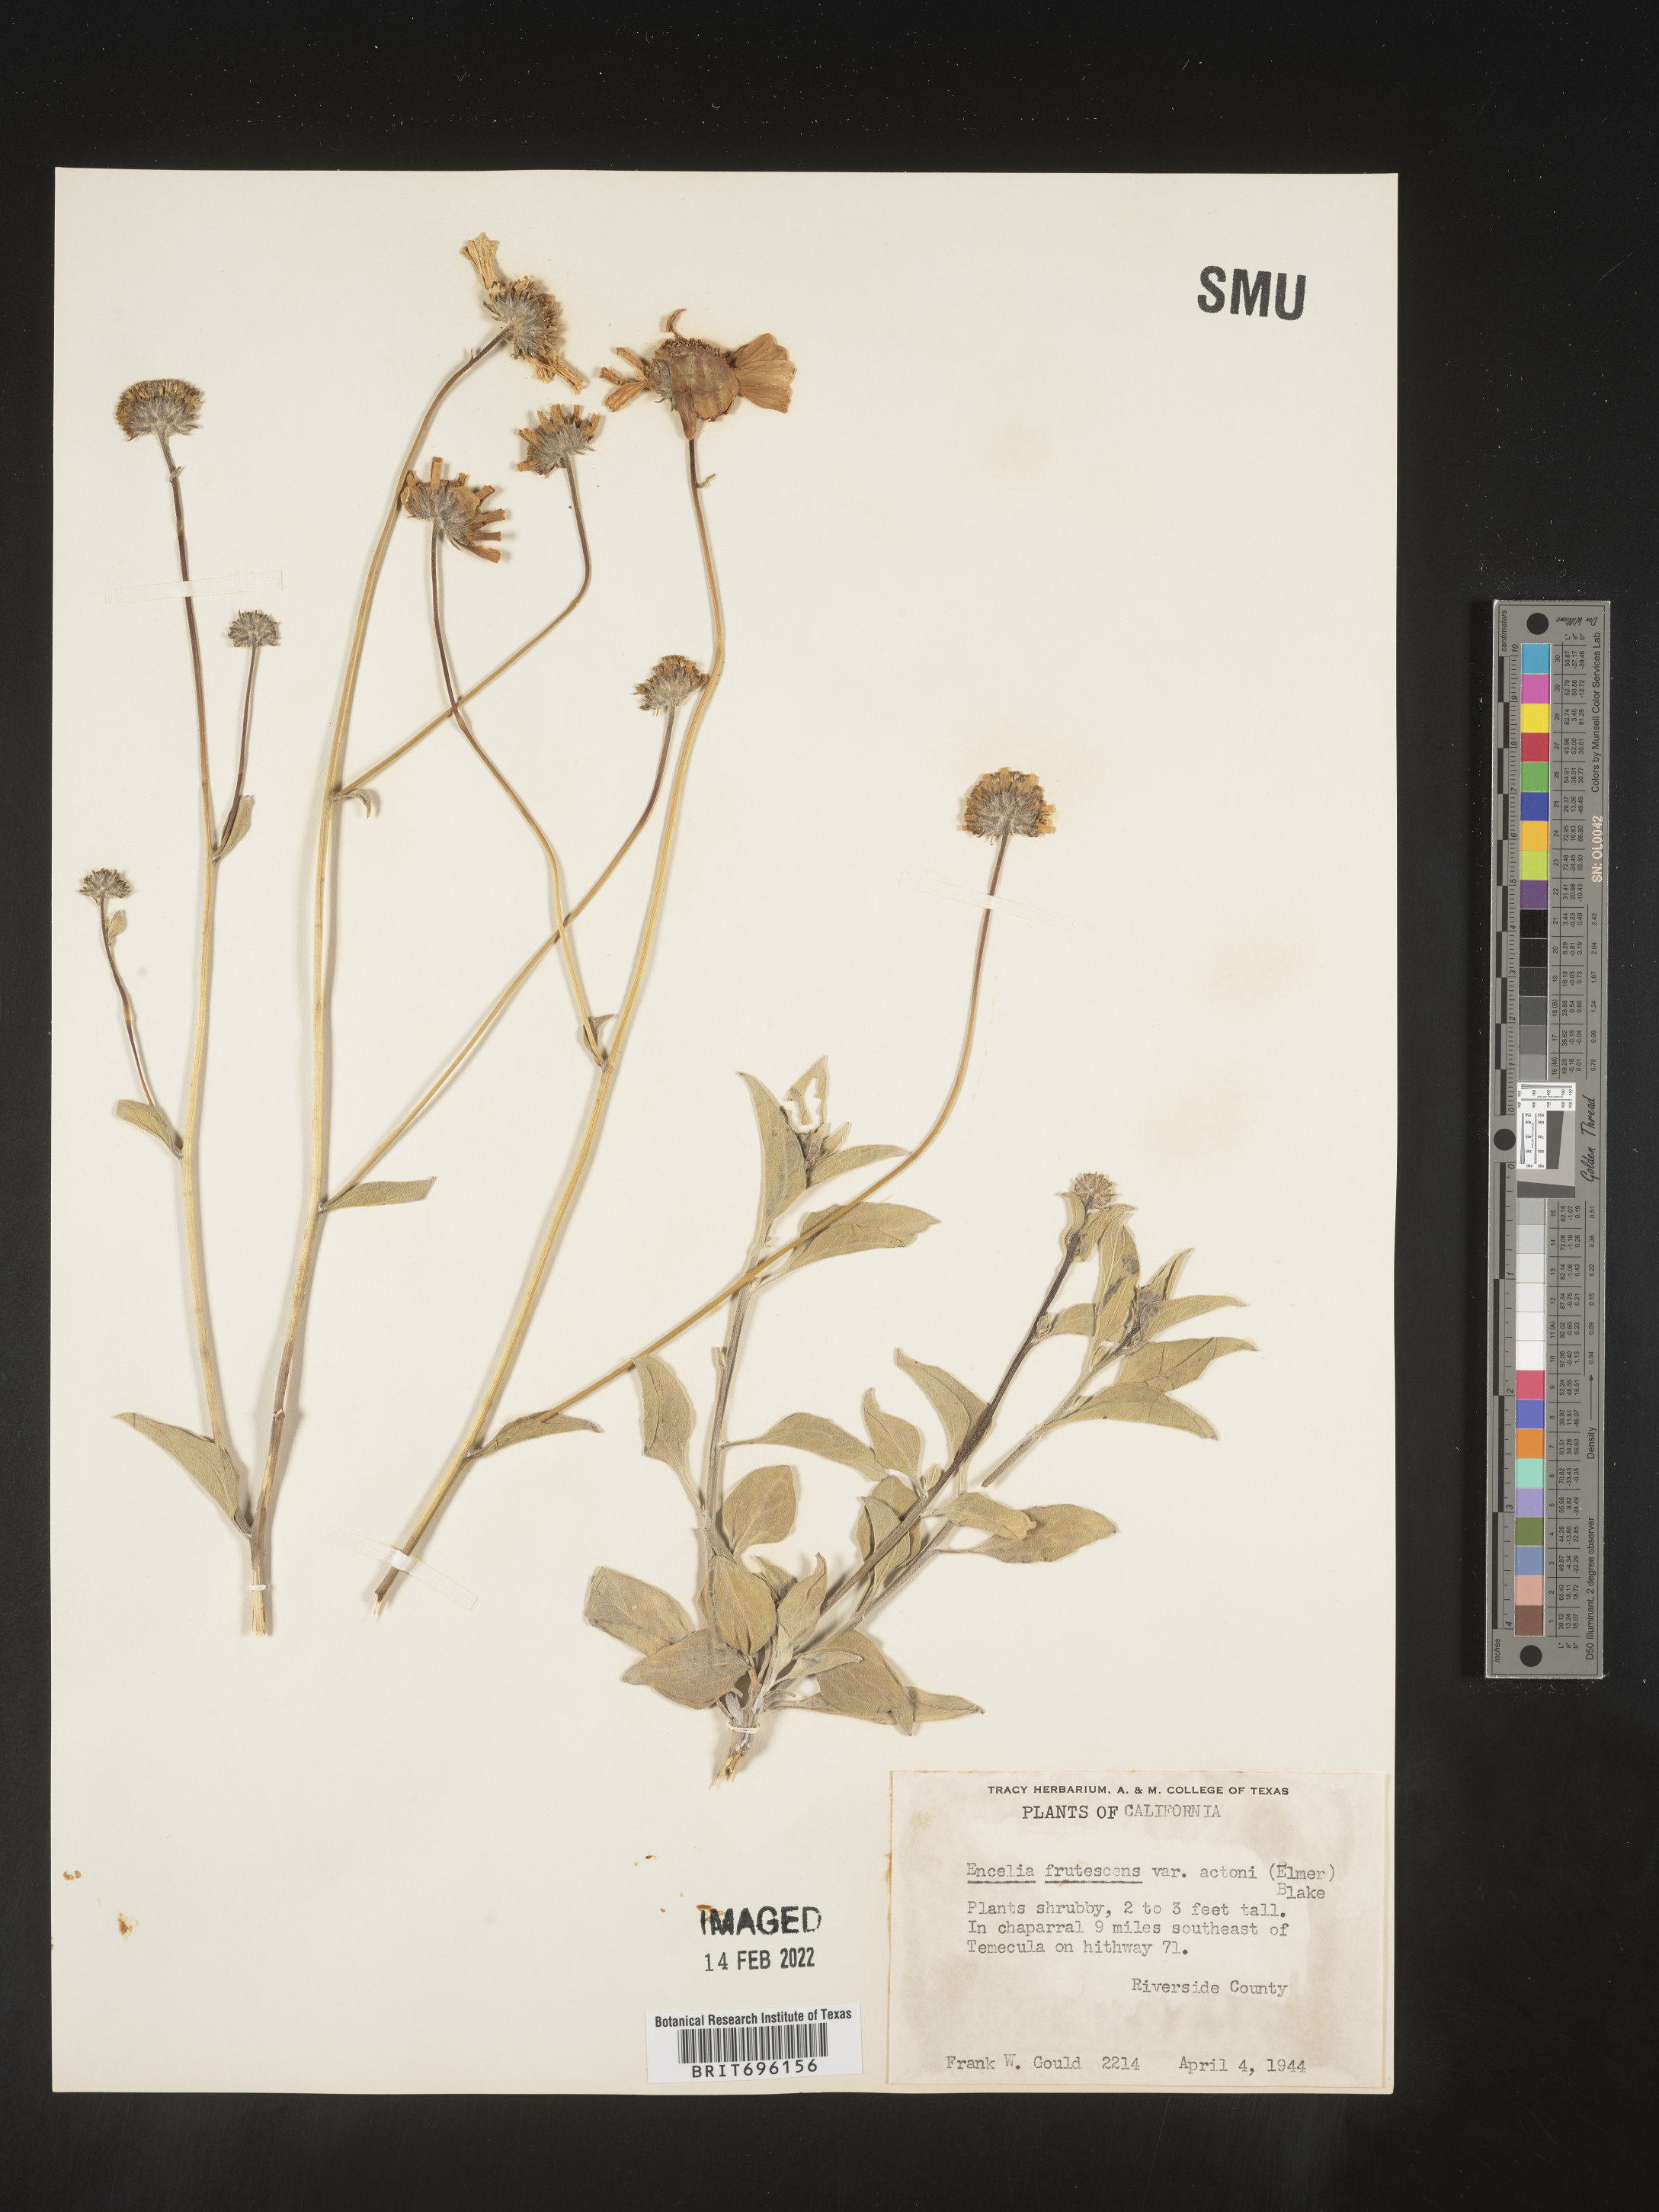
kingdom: Plantae
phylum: Tracheophyta
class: Magnoliopsida
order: Asterales
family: Asteraceae
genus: Encelia
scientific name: Encelia actoni
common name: Acton encelia
